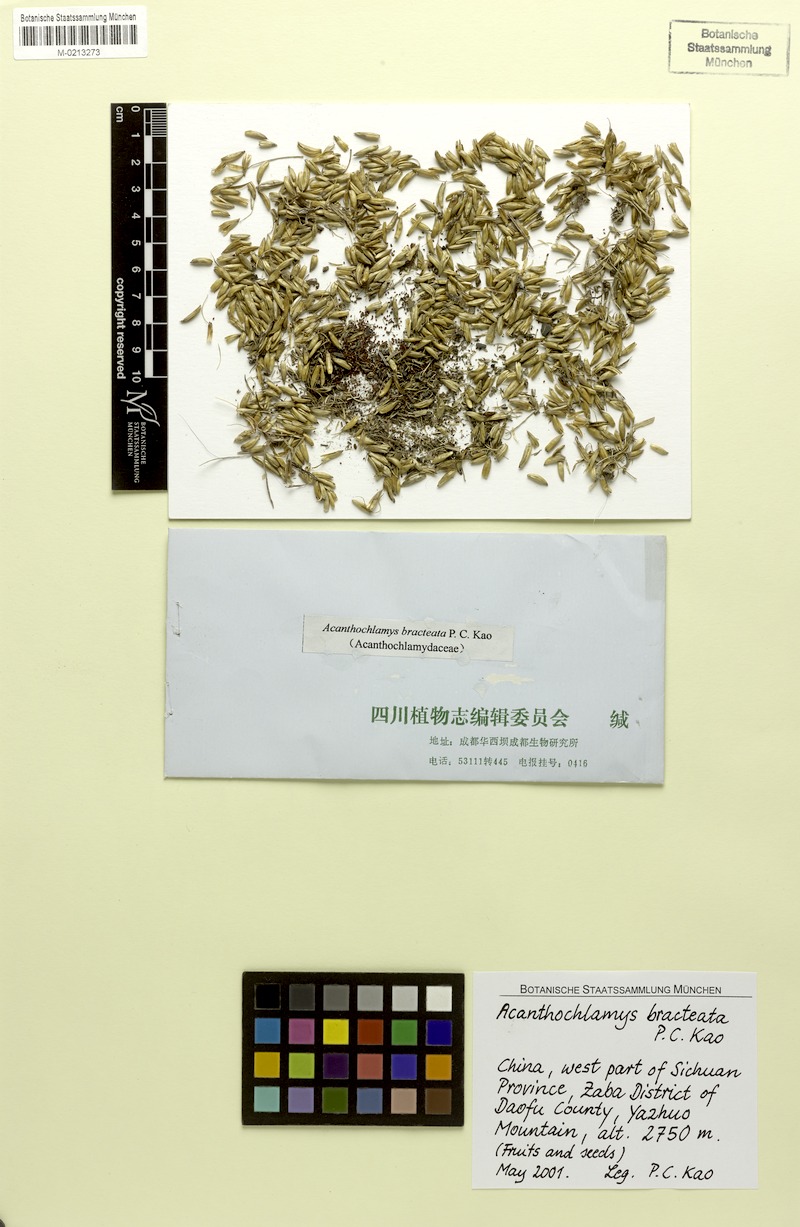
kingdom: Plantae
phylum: Tracheophyta
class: Liliopsida
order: Pandanales
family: Velloziaceae
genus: Acanthochlamys
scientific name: Acanthochlamys bracteata
